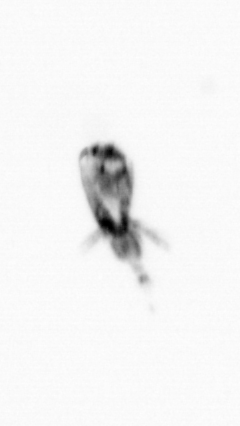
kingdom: Animalia
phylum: Arthropoda
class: Copepoda
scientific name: Copepoda
